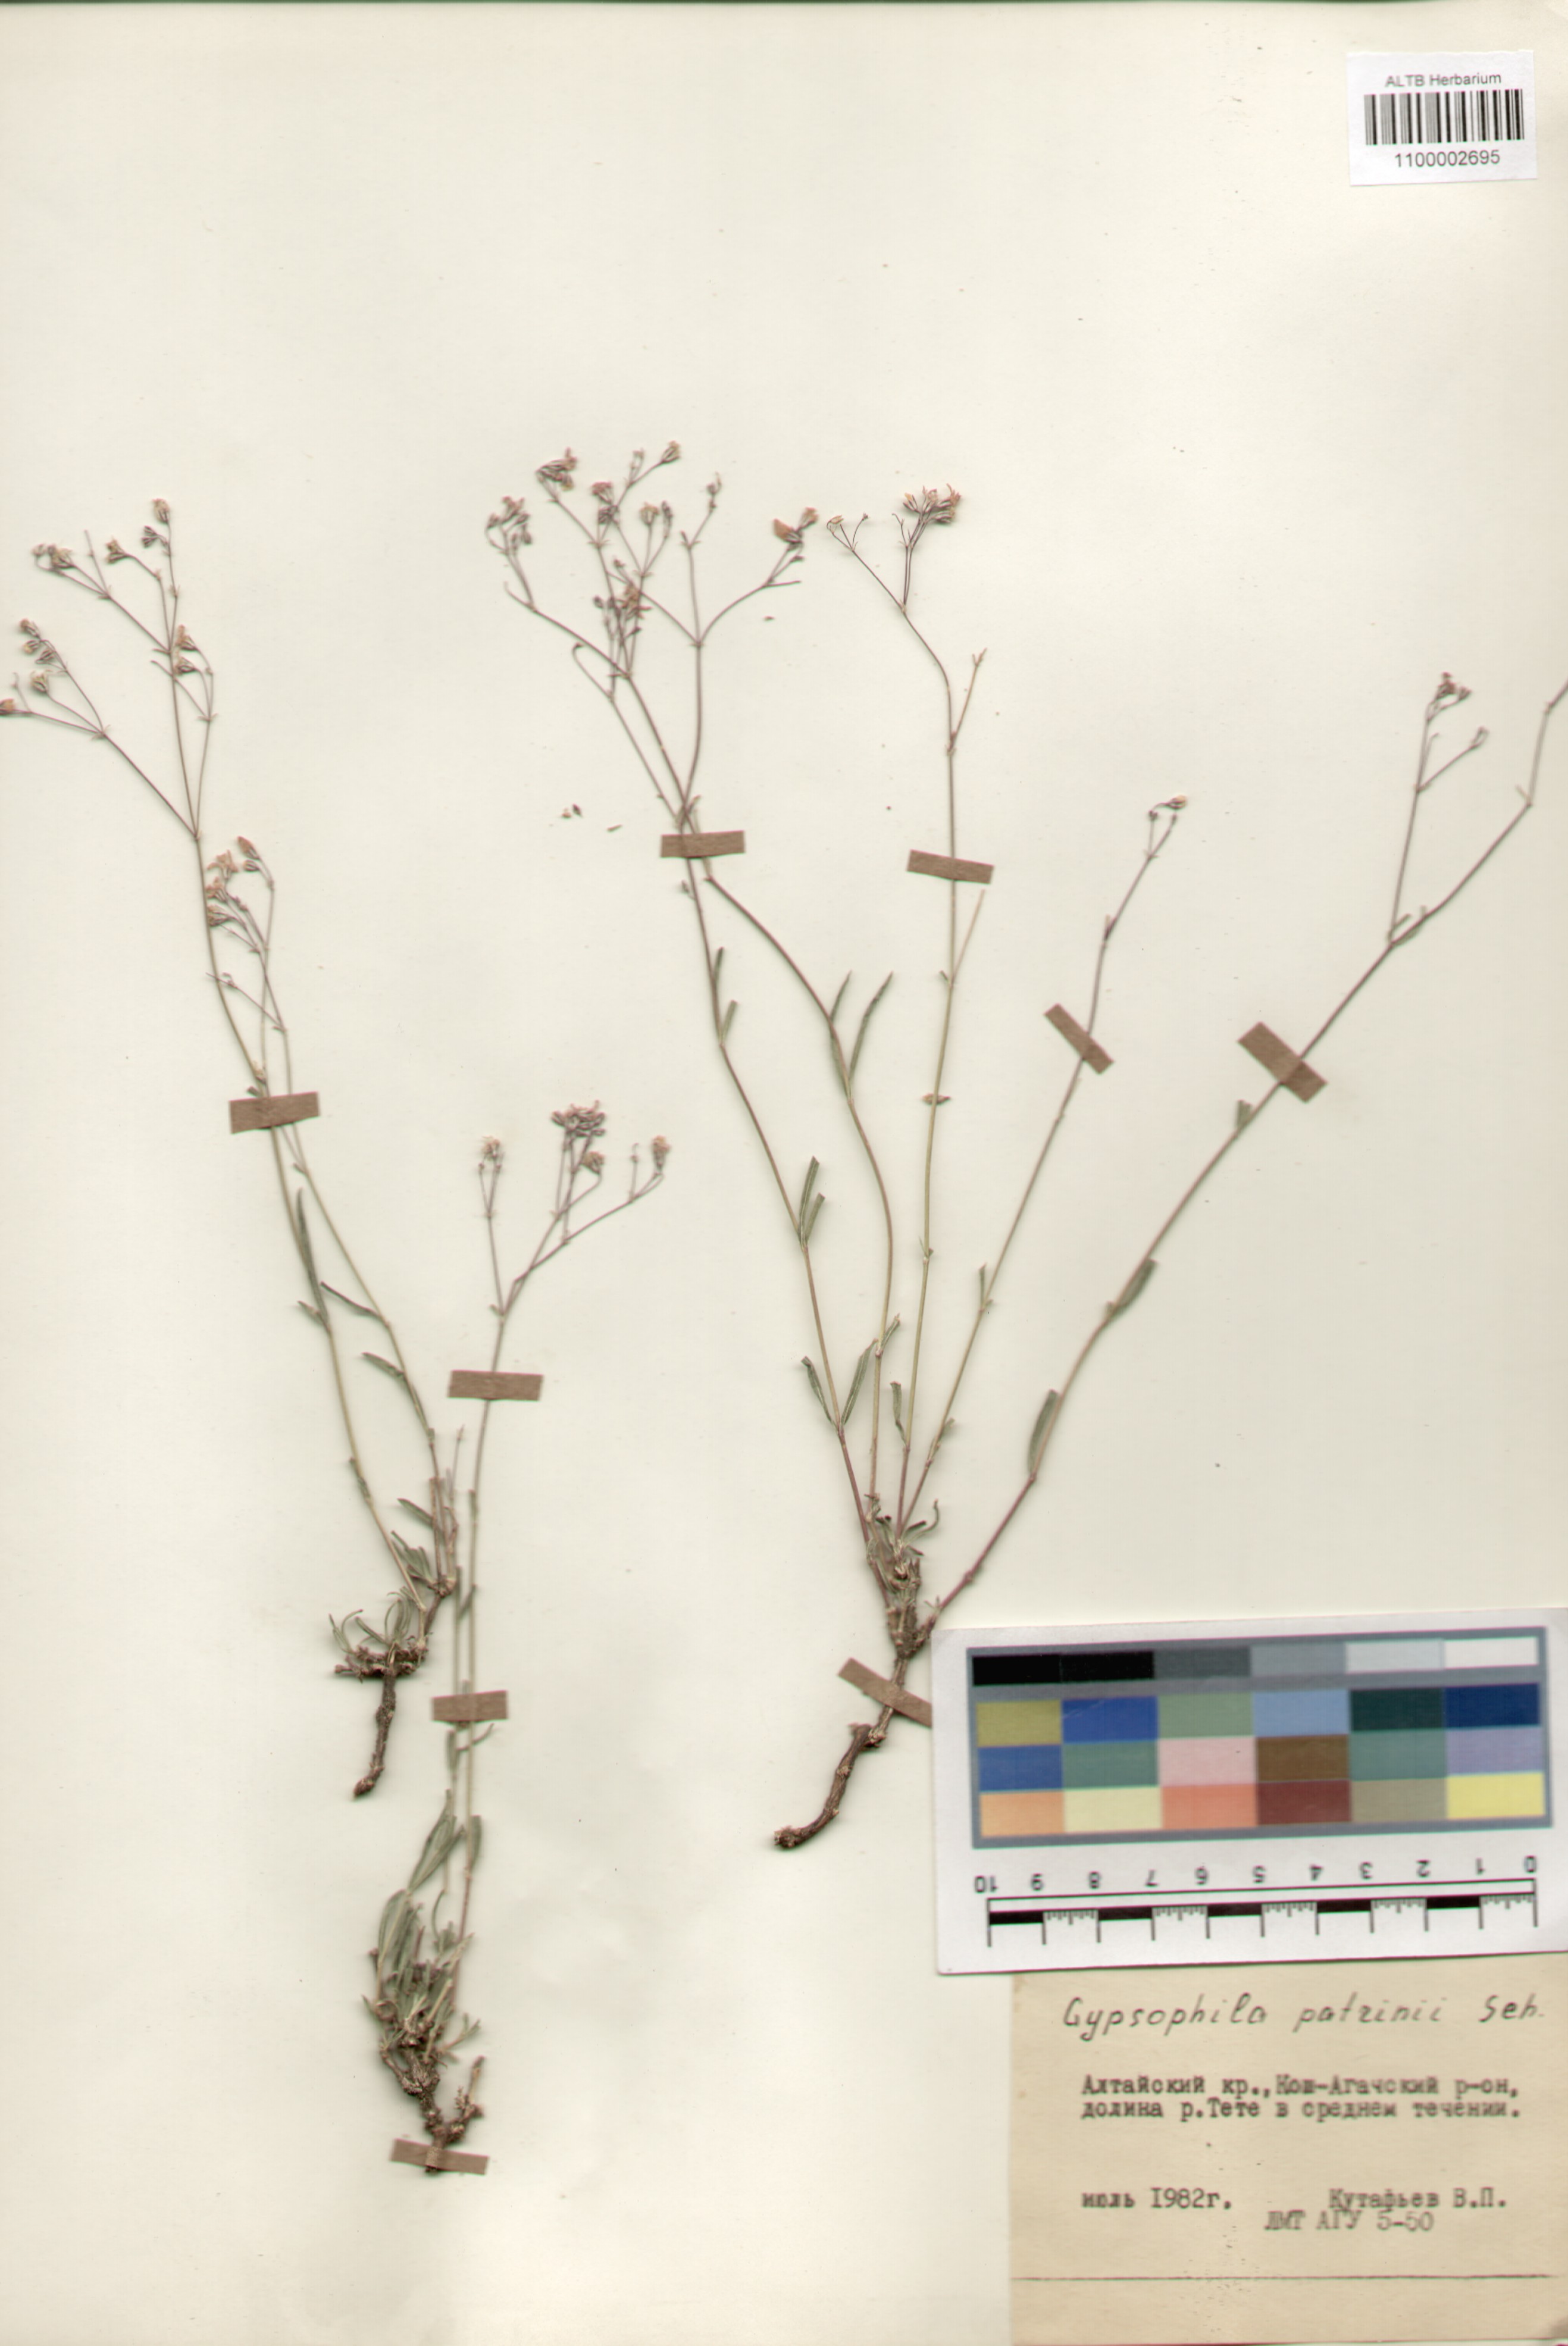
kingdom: Plantae
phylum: Tracheophyta
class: Magnoliopsida
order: Caryophyllales
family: Caryophyllaceae
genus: Gypsophila
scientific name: Gypsophila patrinii
